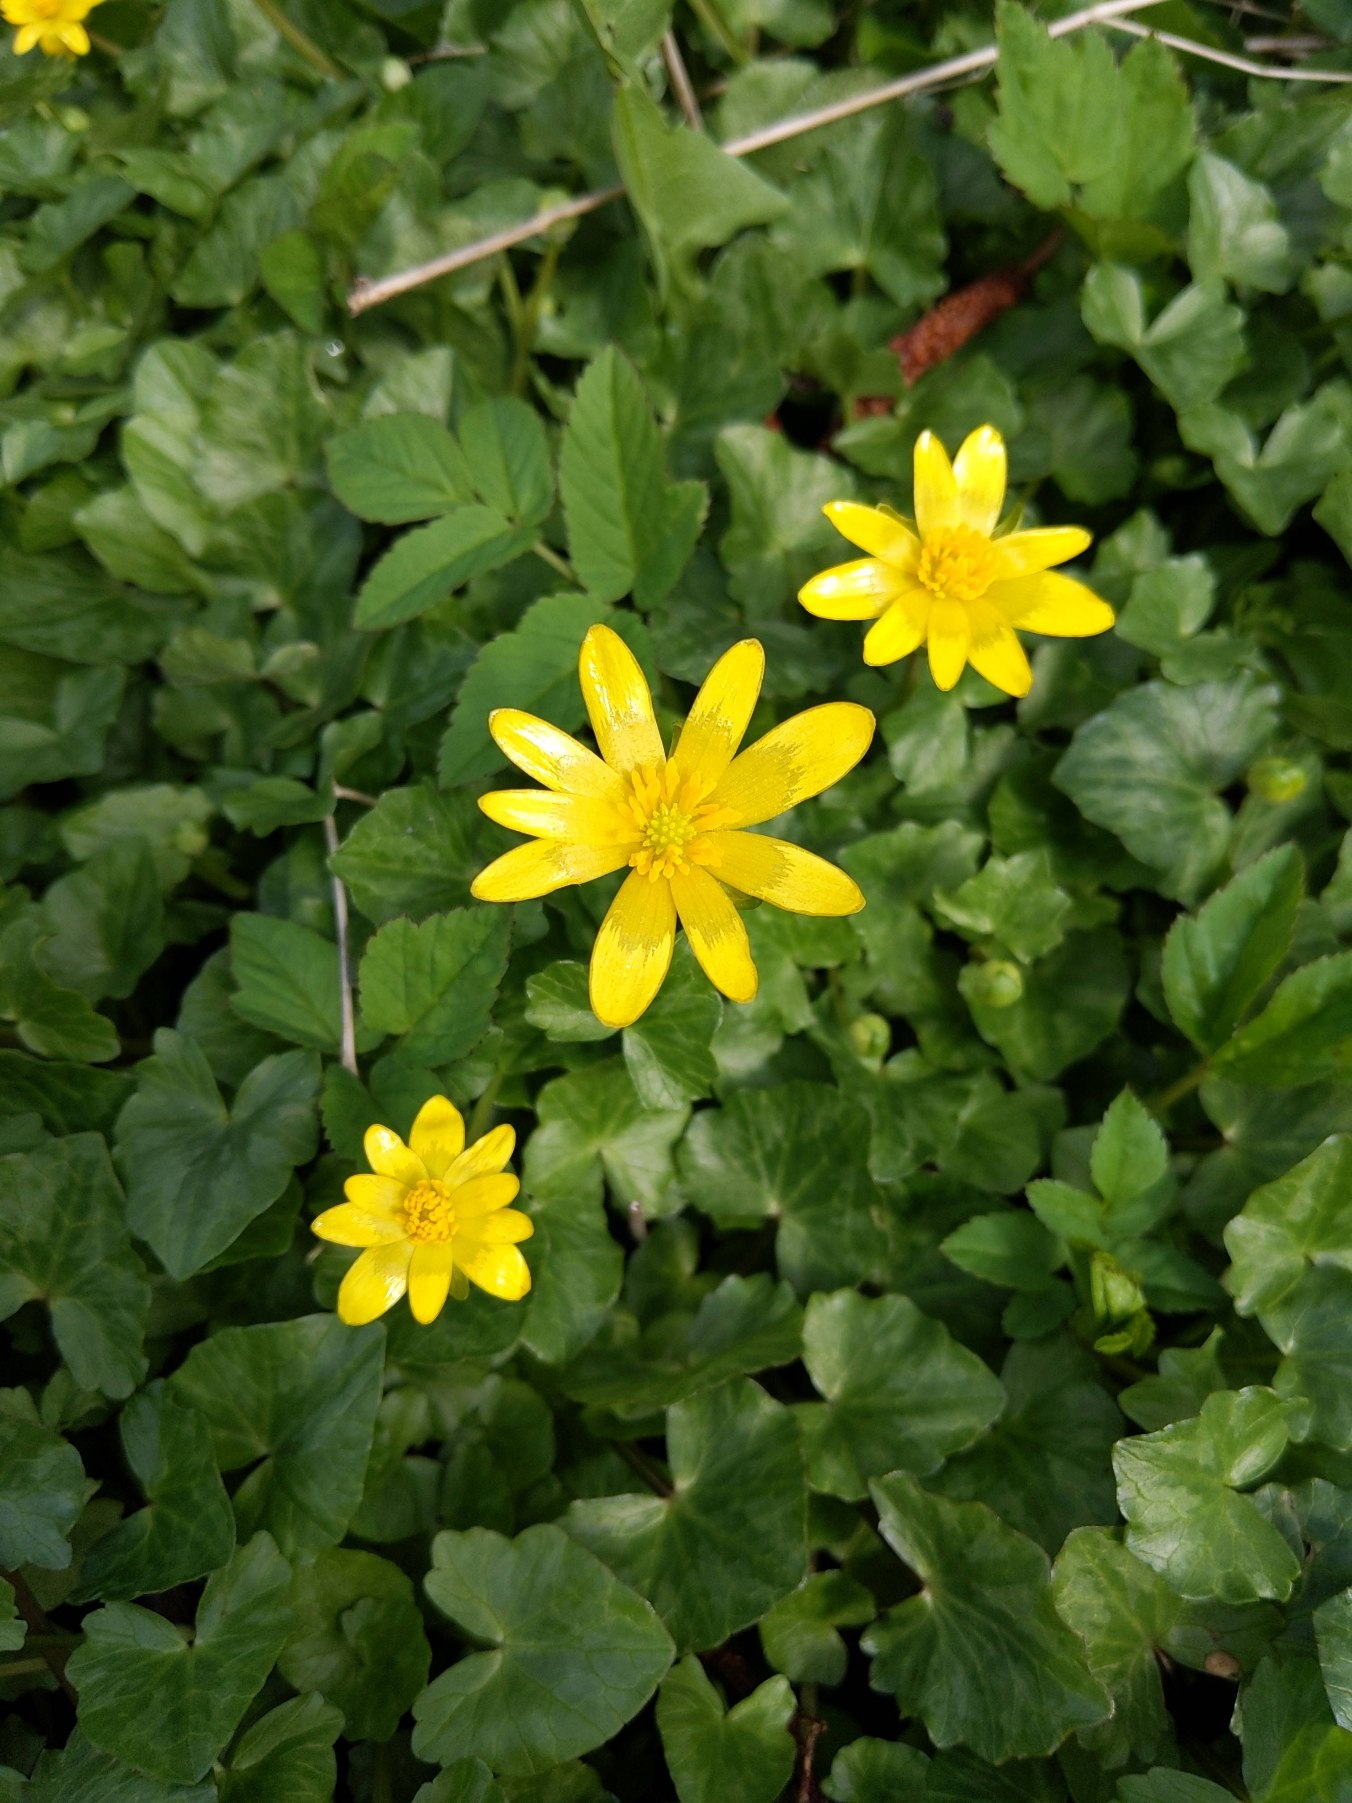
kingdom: Plantae
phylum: Tracheophyta
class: Magnoliopsida
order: Ranunculales
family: Ranunculaceae
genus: Ficaria
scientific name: Ficaria verna
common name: Vorterod
